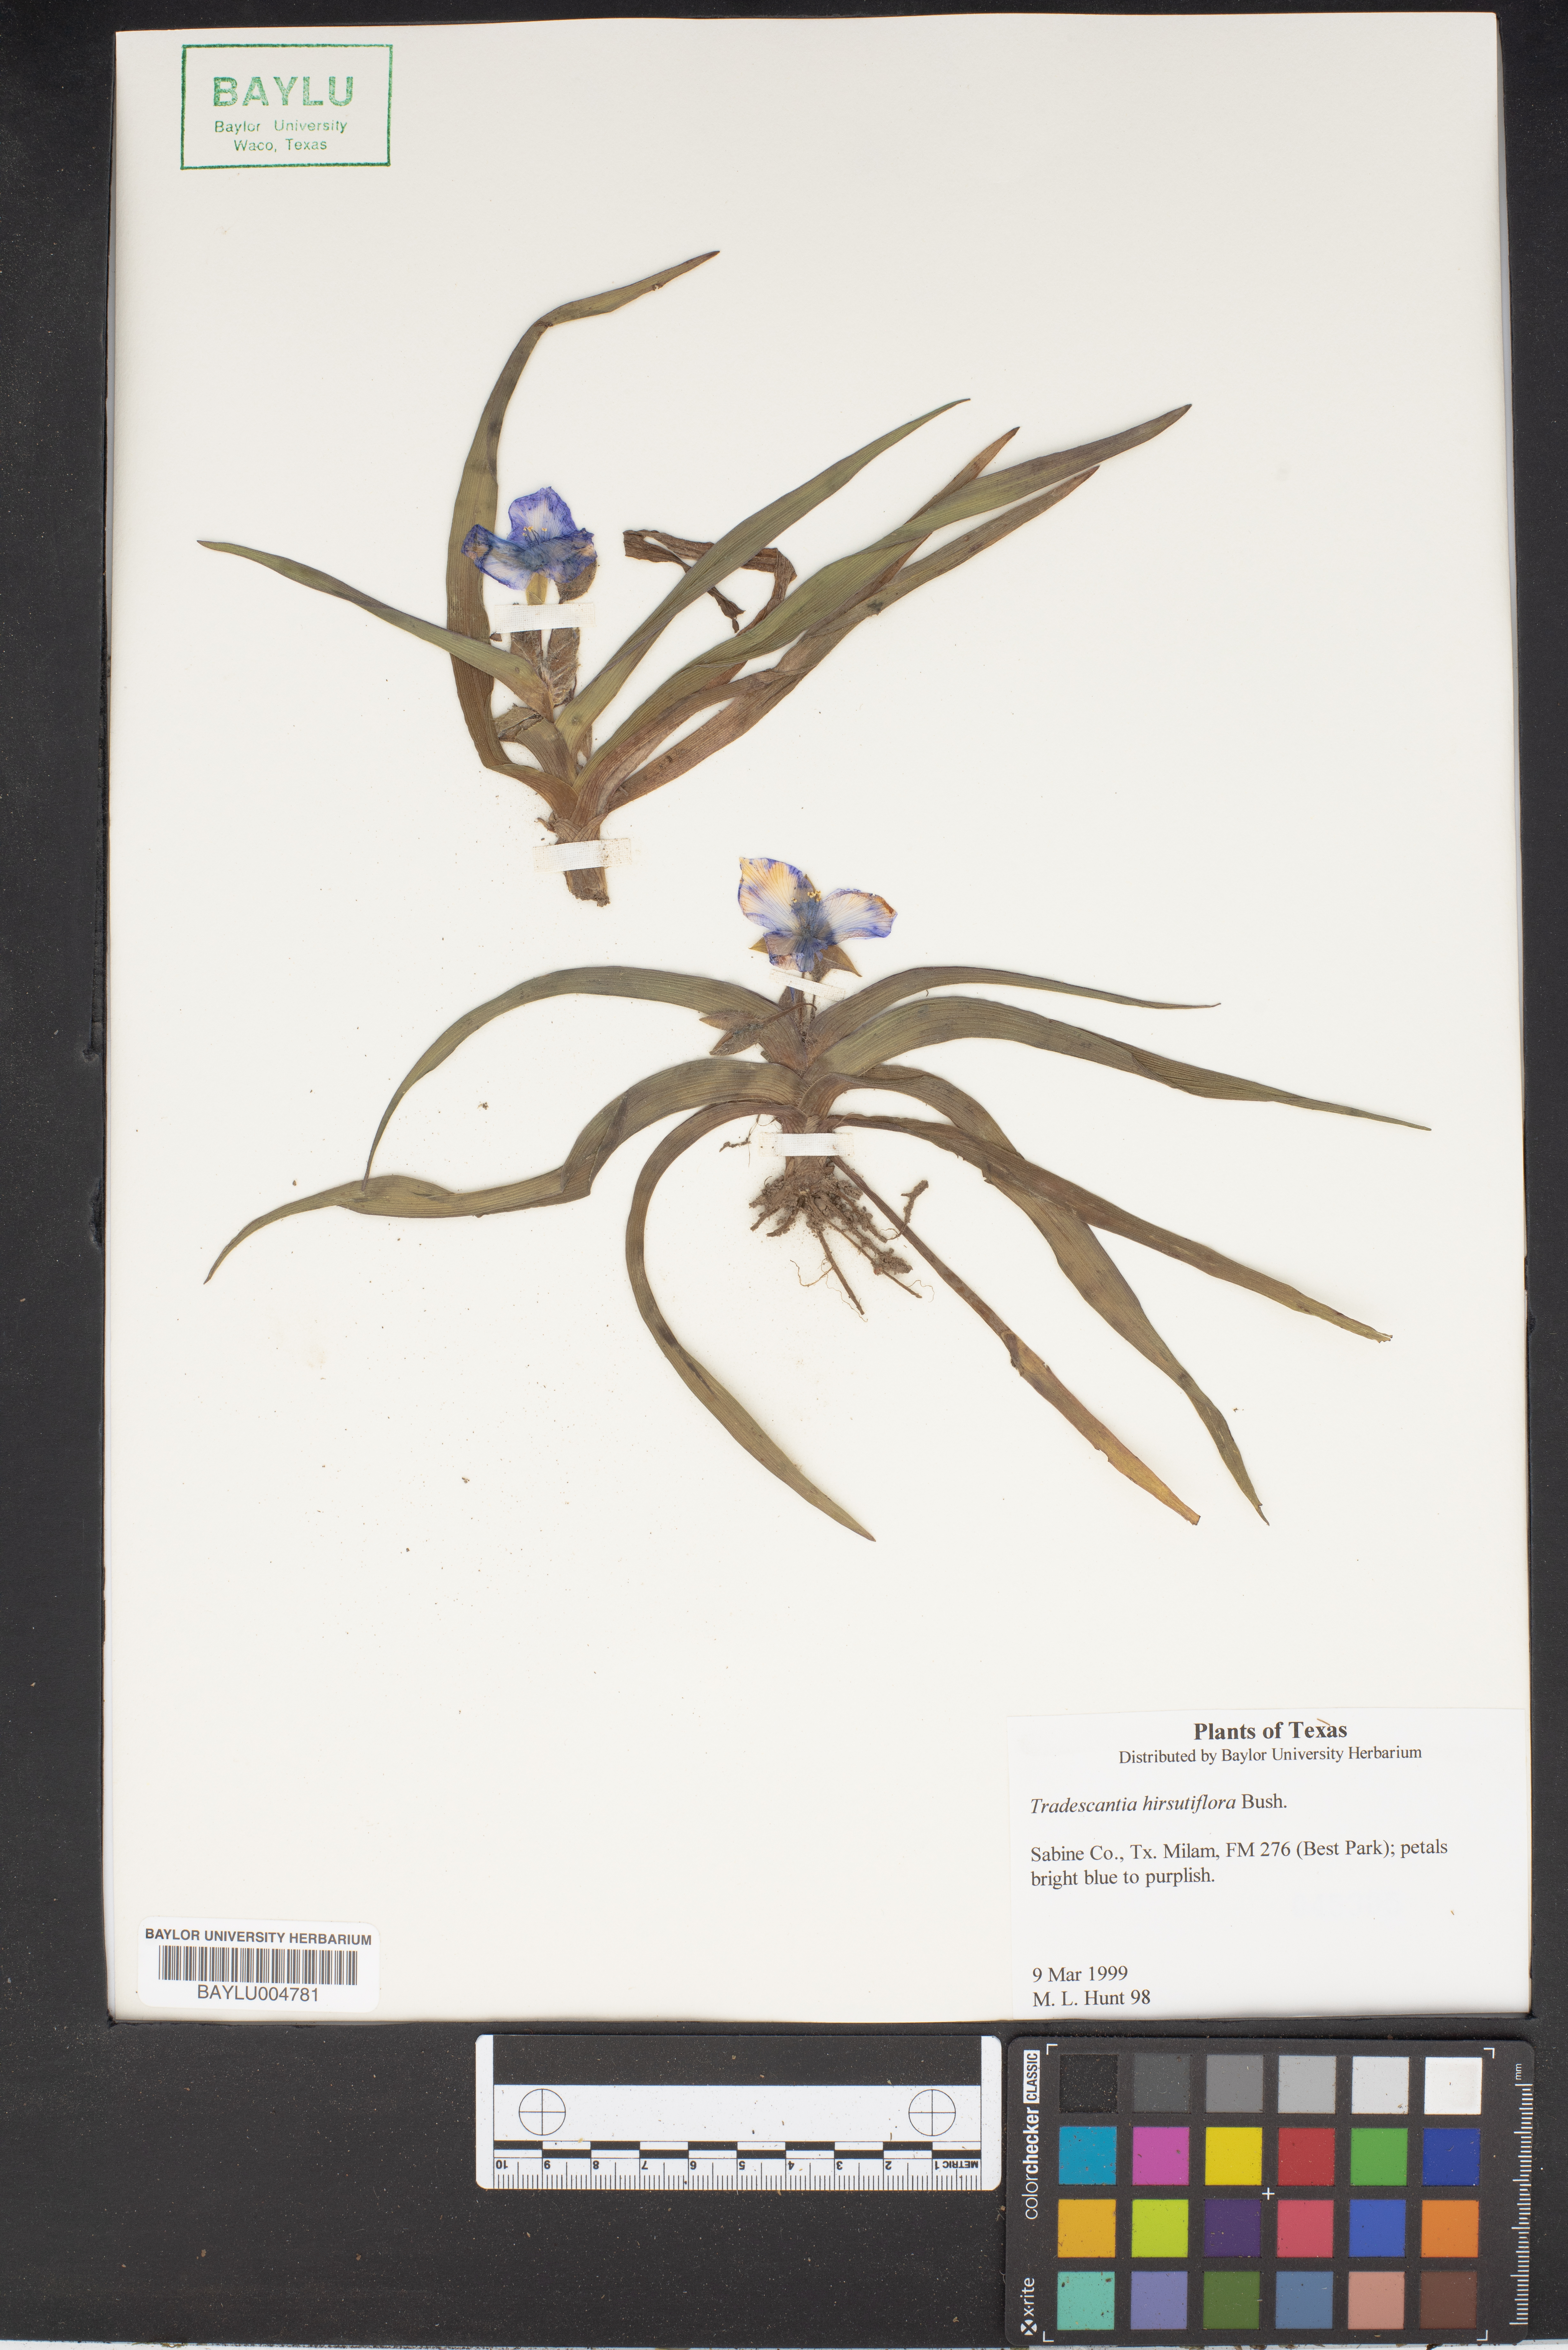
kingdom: Plantae
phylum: Tracheophyta
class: Liliopsida
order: Commelinales
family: Commelinaceae
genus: Tradescantia
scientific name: Tradescantia hirsutiflora
